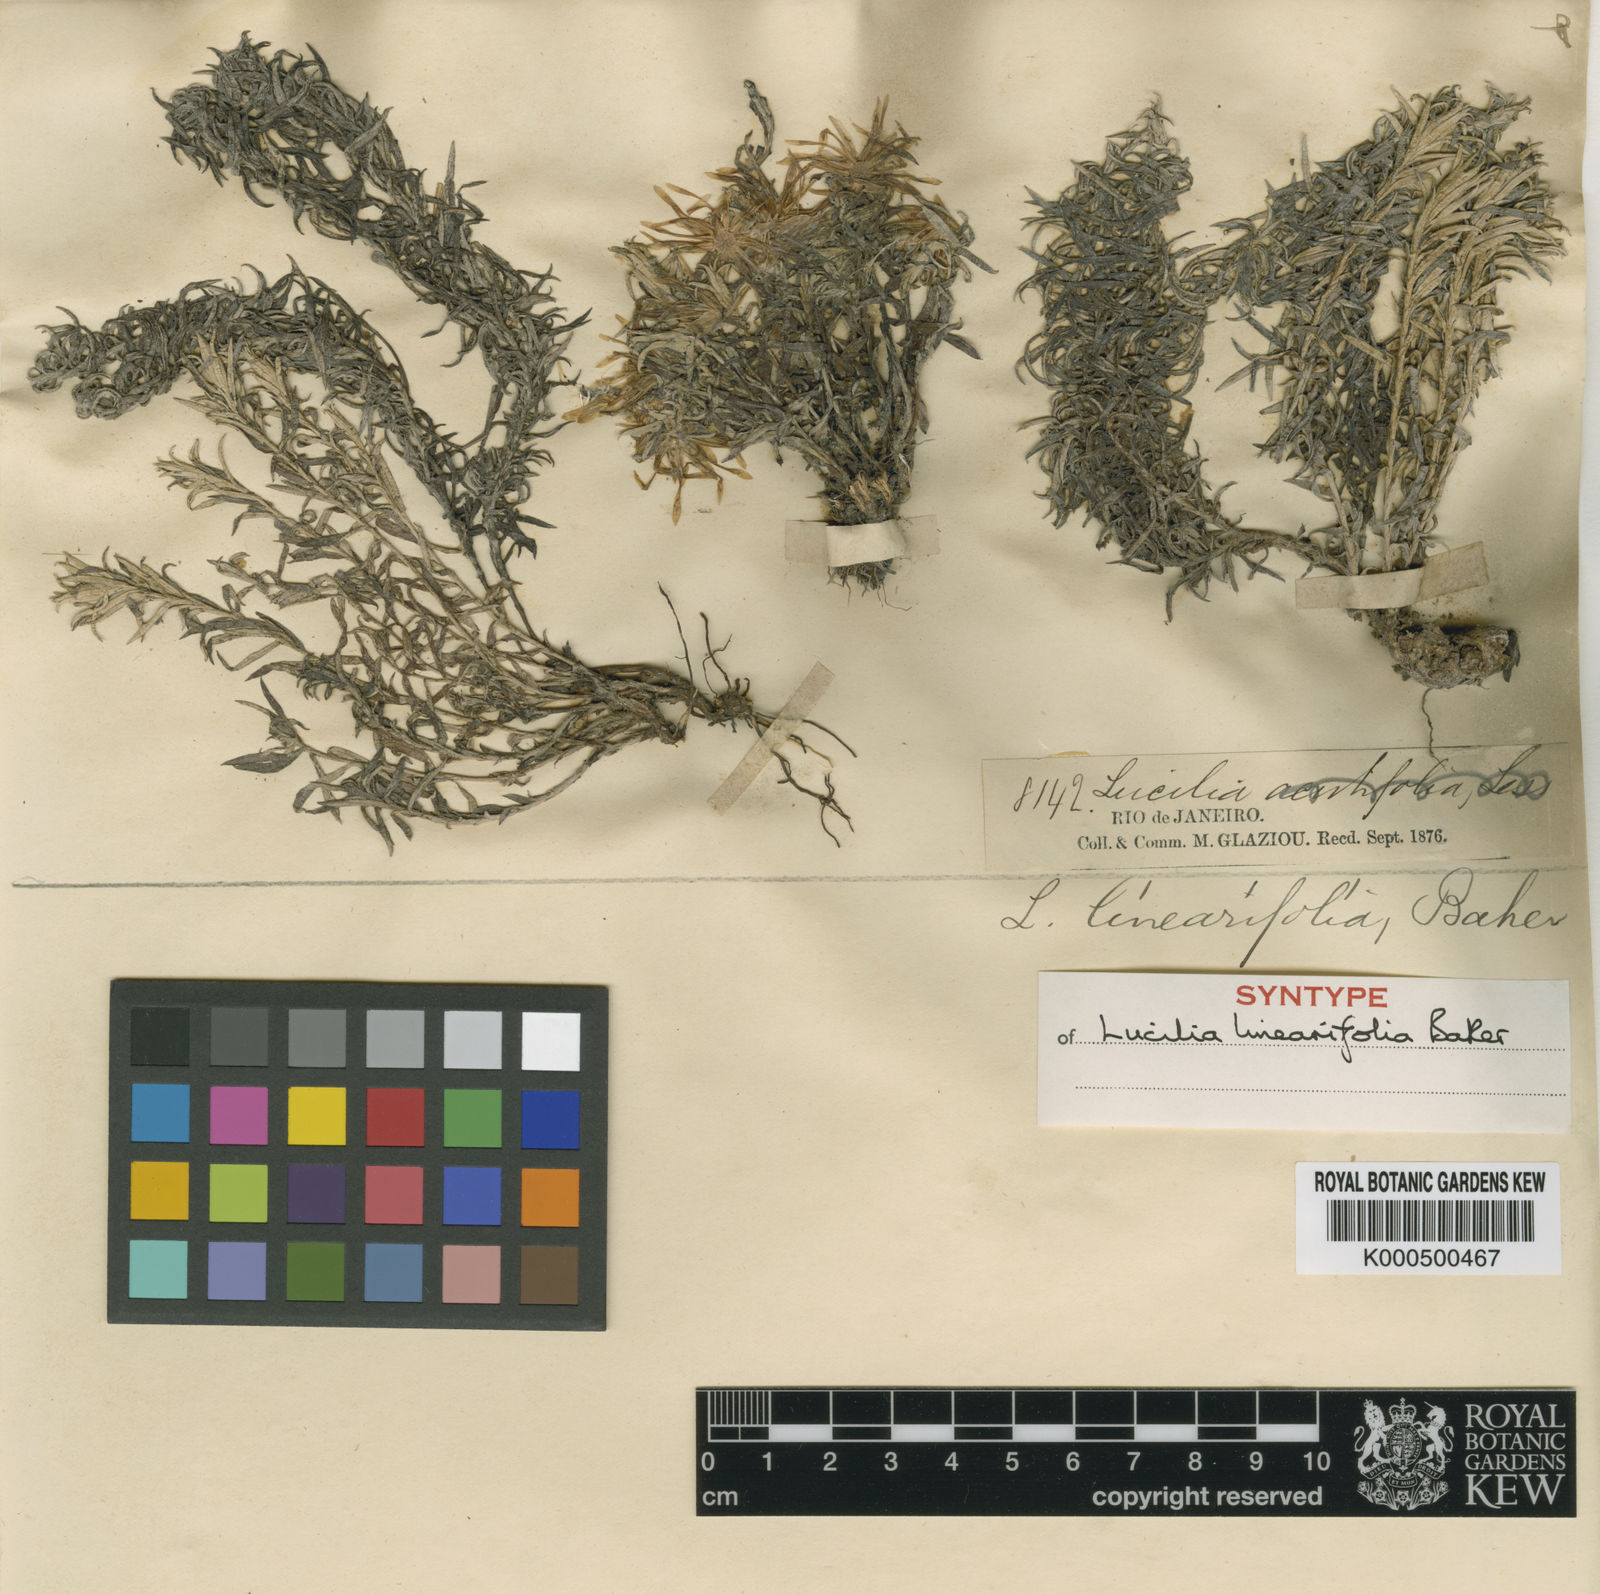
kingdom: Plantae
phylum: Tracheophyta
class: Magnoliopsida
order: Asterales
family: Asteraceae
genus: Lucilia
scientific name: Lucilia linearifolia
